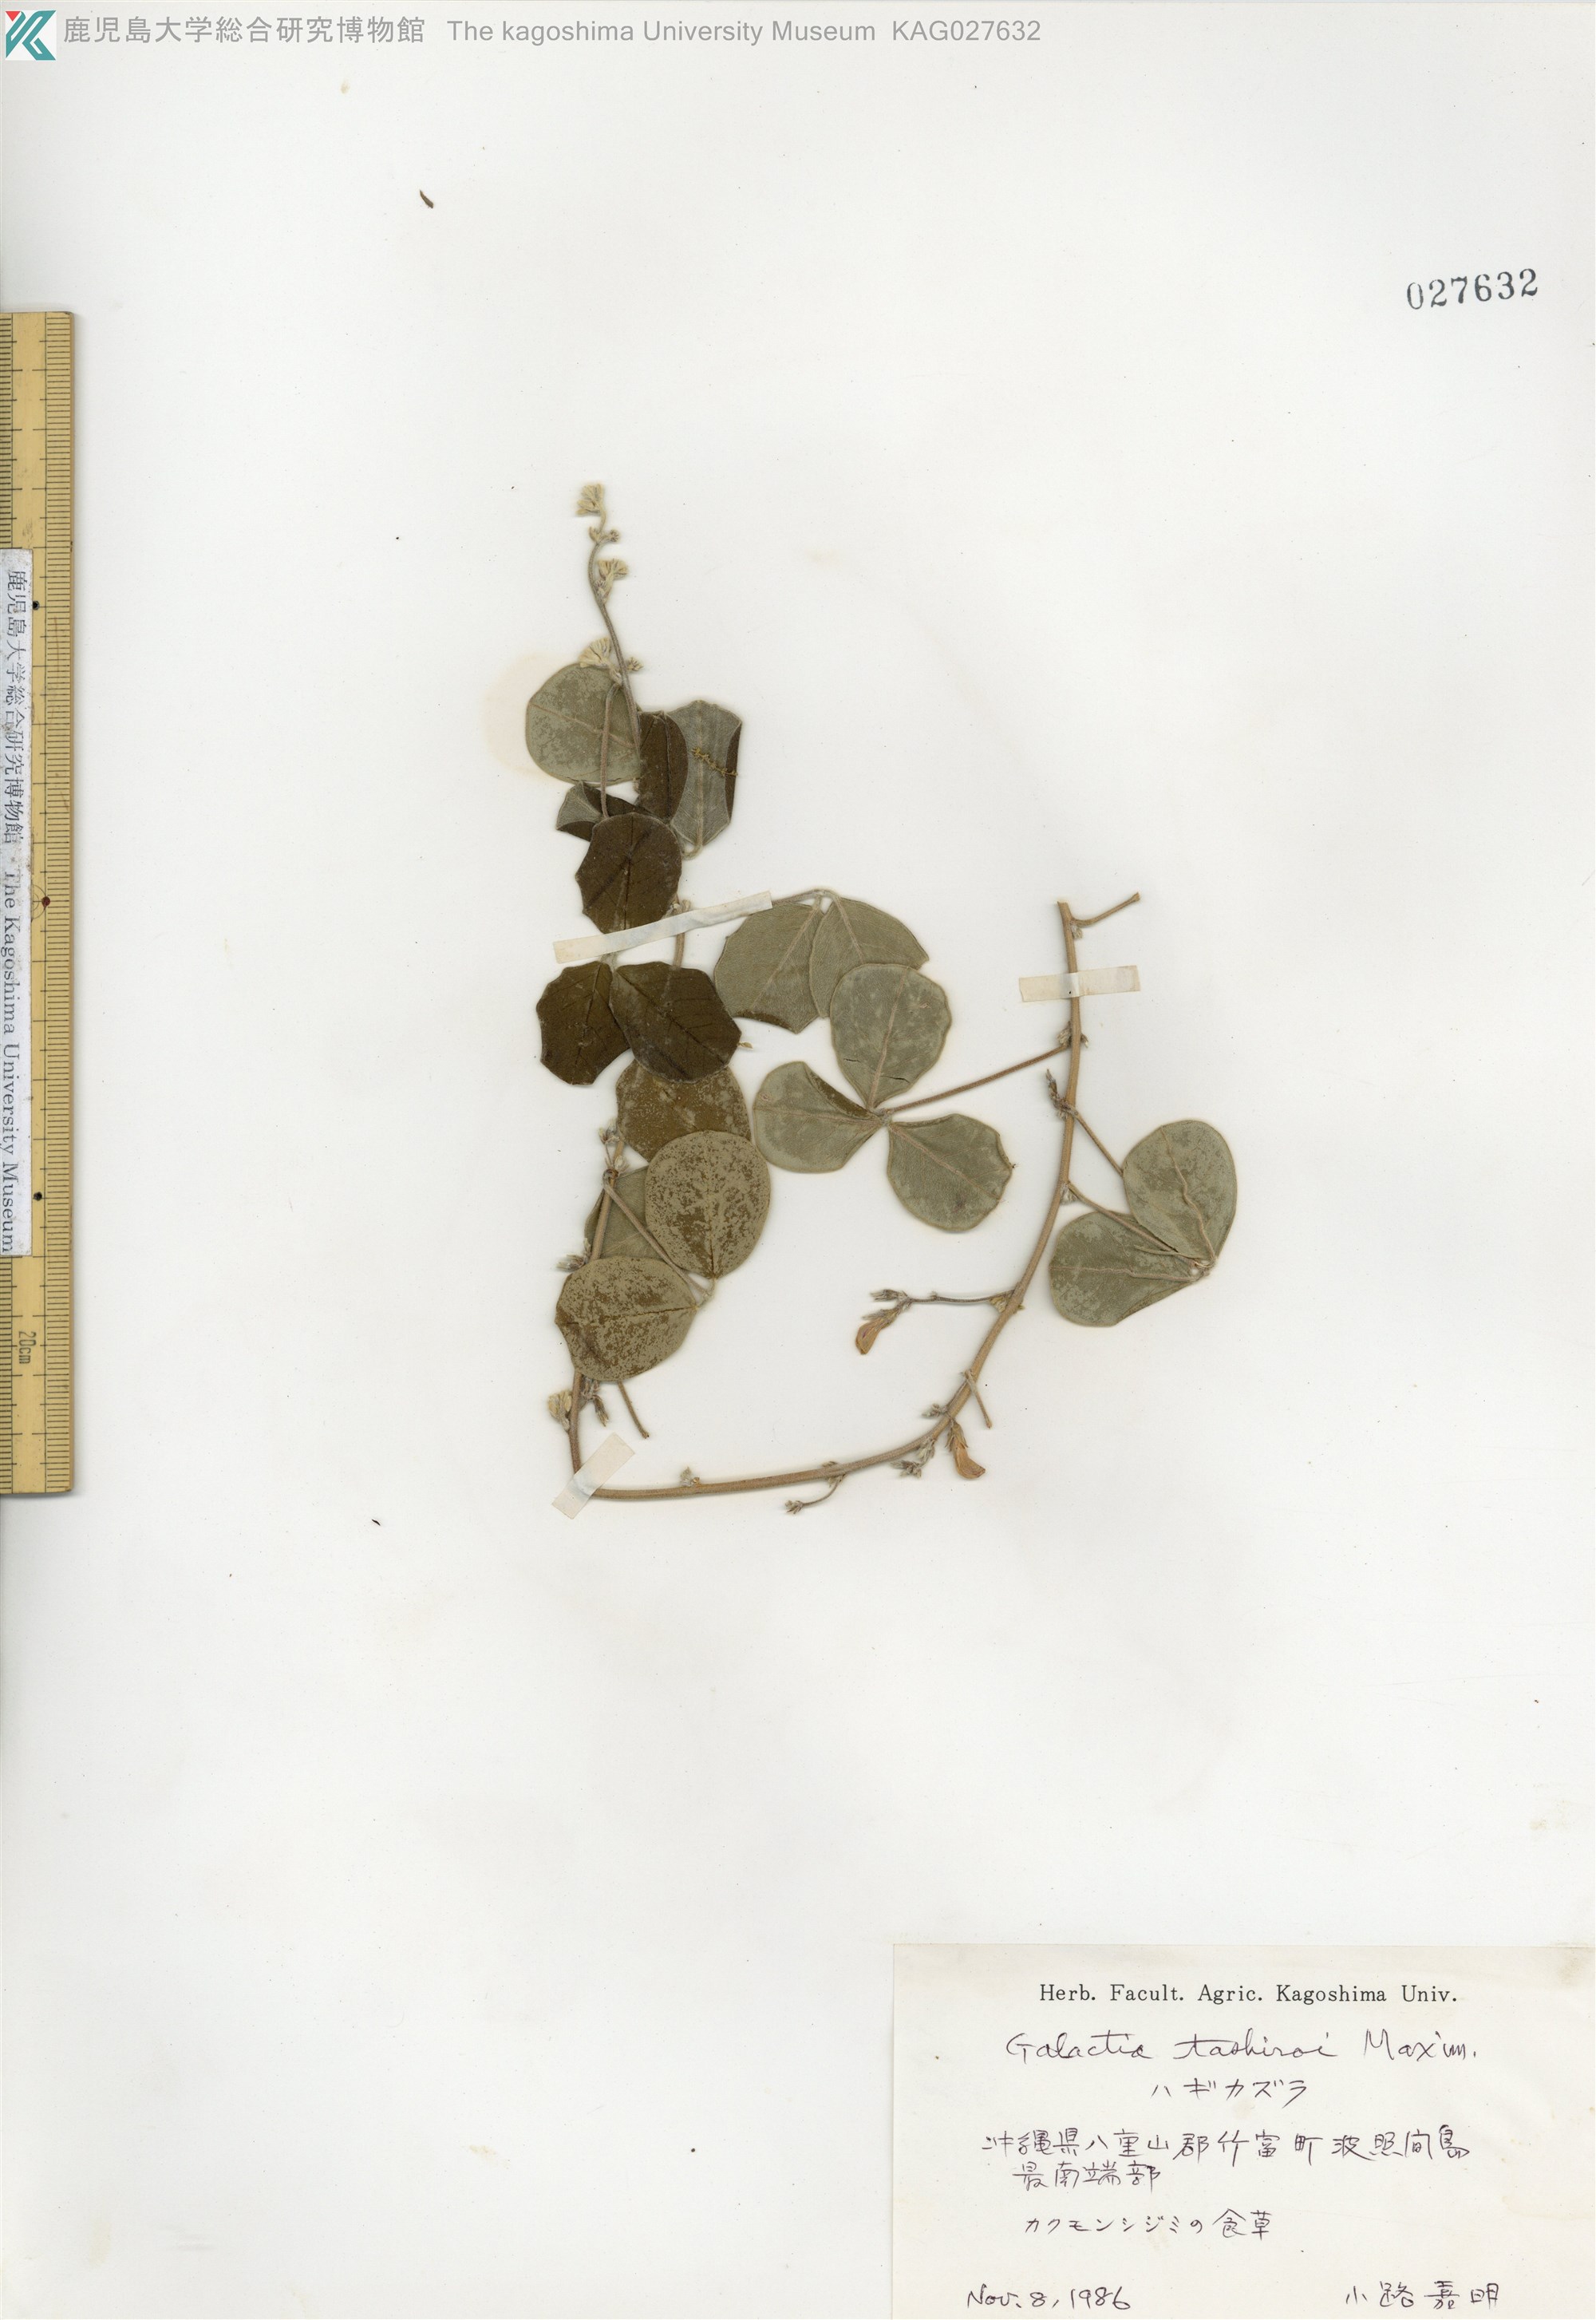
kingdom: Plantae
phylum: Tracheophyta
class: Magnoliopsida
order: Fabales
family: Fabaceae
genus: Galactia
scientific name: Galactia tashiroi
